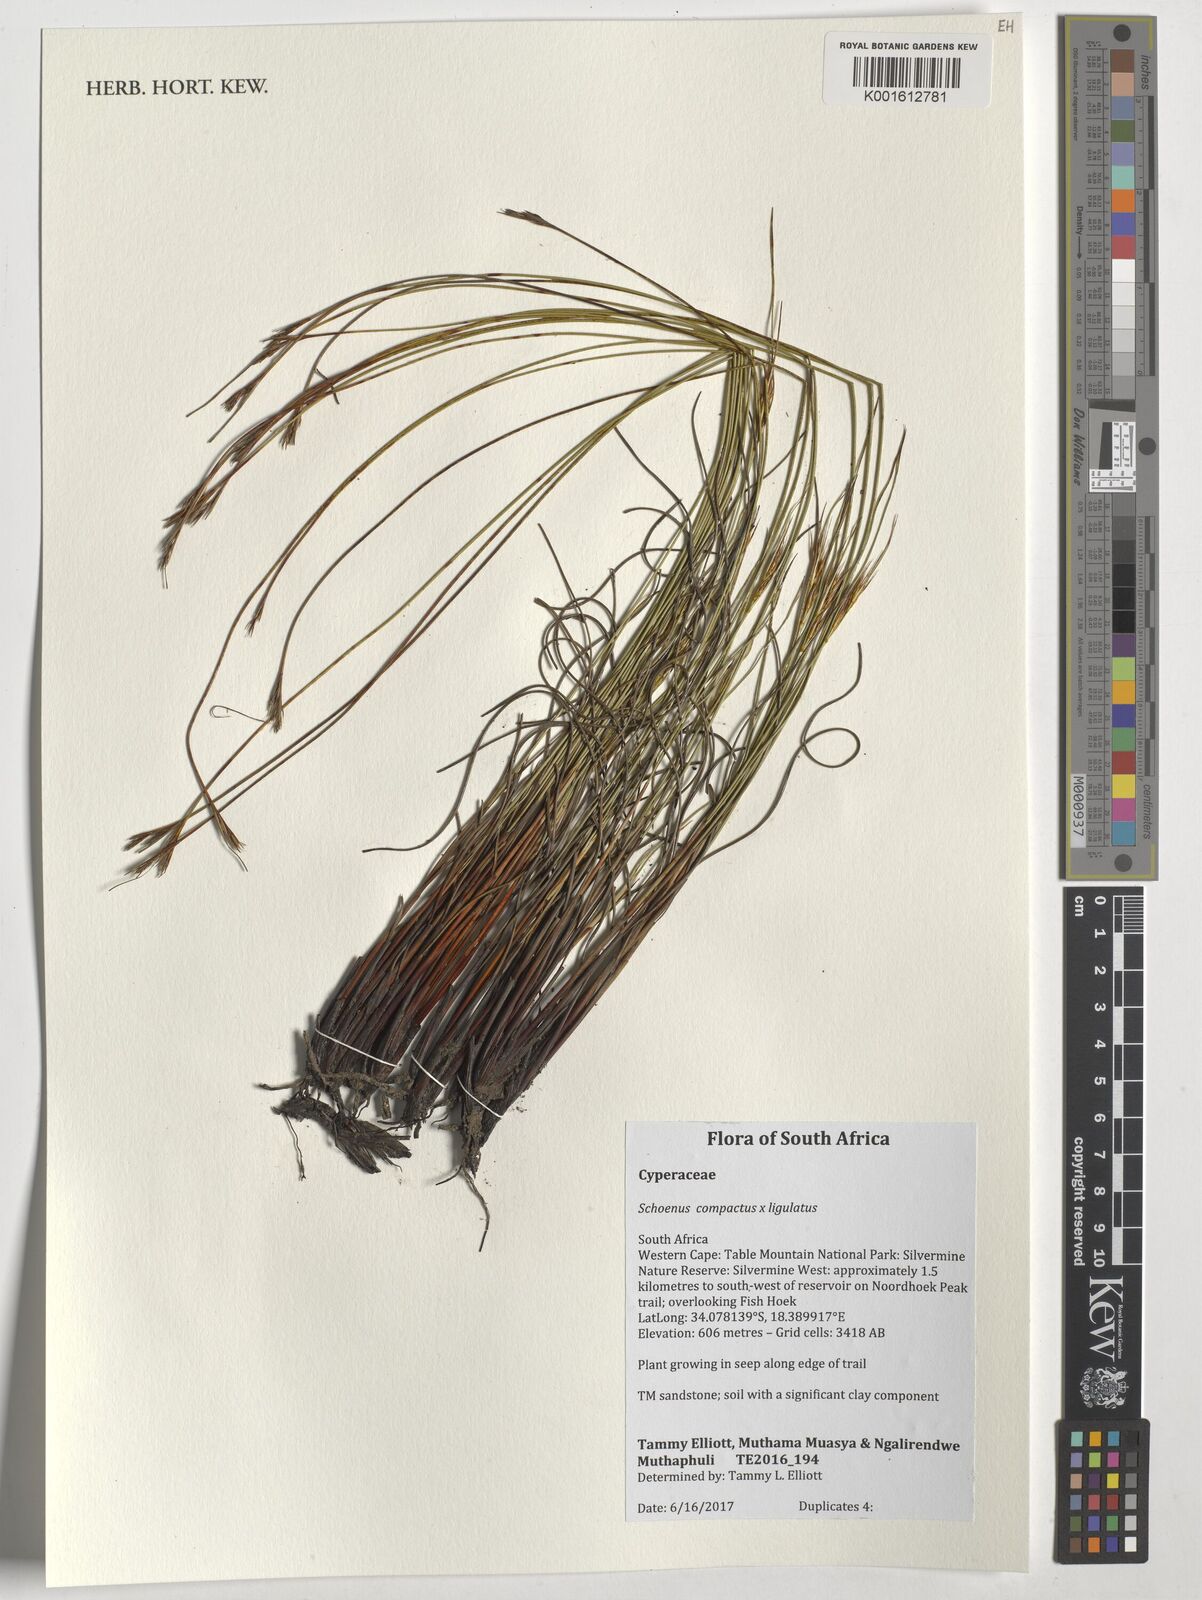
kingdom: Plantae
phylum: Tracheophyta
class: Liliopsida
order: Poales
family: Cyperaceae
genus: Schoenus
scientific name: Schoenus compactus
